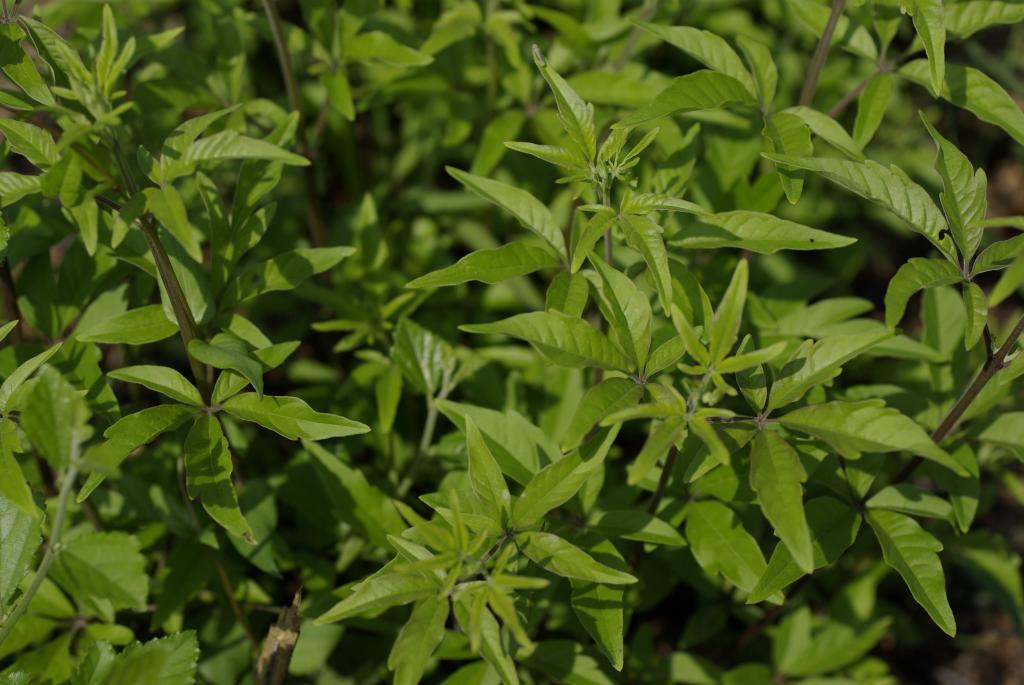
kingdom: Plantae
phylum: Tracheophyta
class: Magnoliopsida
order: Lamiales
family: Lamiaceae
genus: Vitex
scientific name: Vitex negundo
